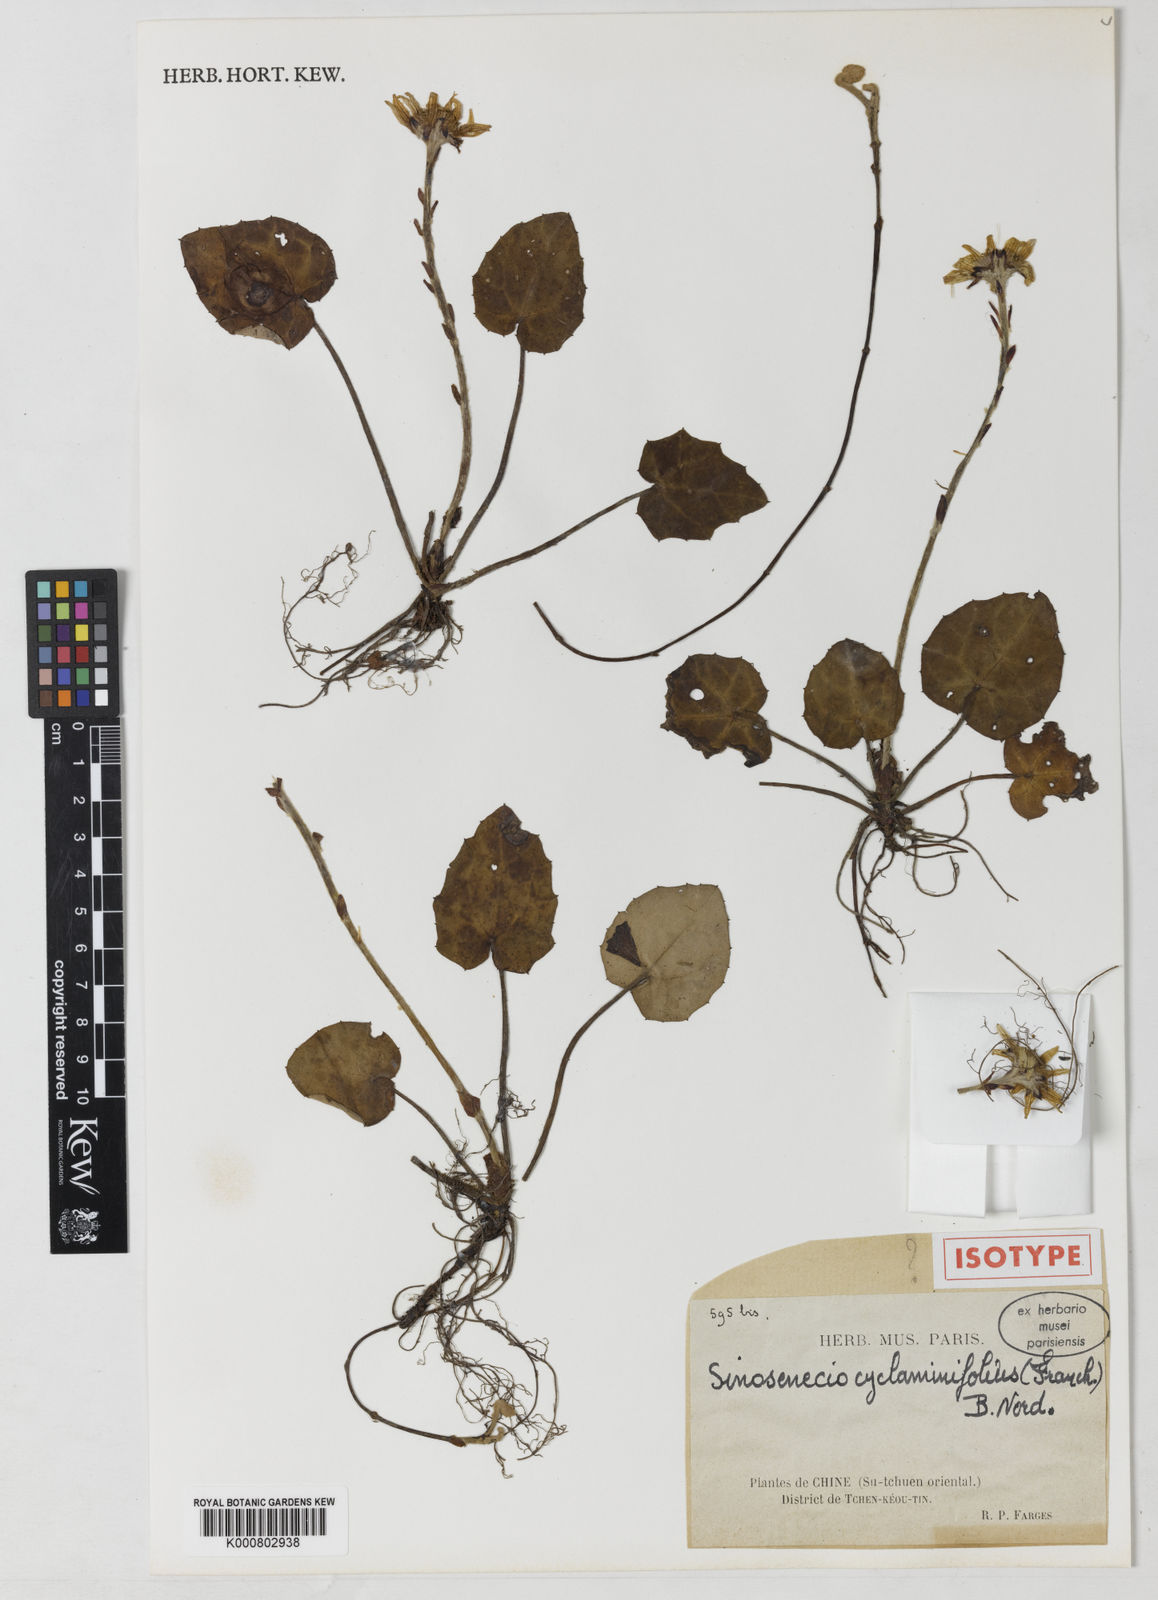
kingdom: Plantae
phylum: Tracheophyta
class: Magnoliopsida
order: Asterales
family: Asteraceae
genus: Sinosenecio
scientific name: Sinosenecio cyclaminifolius
